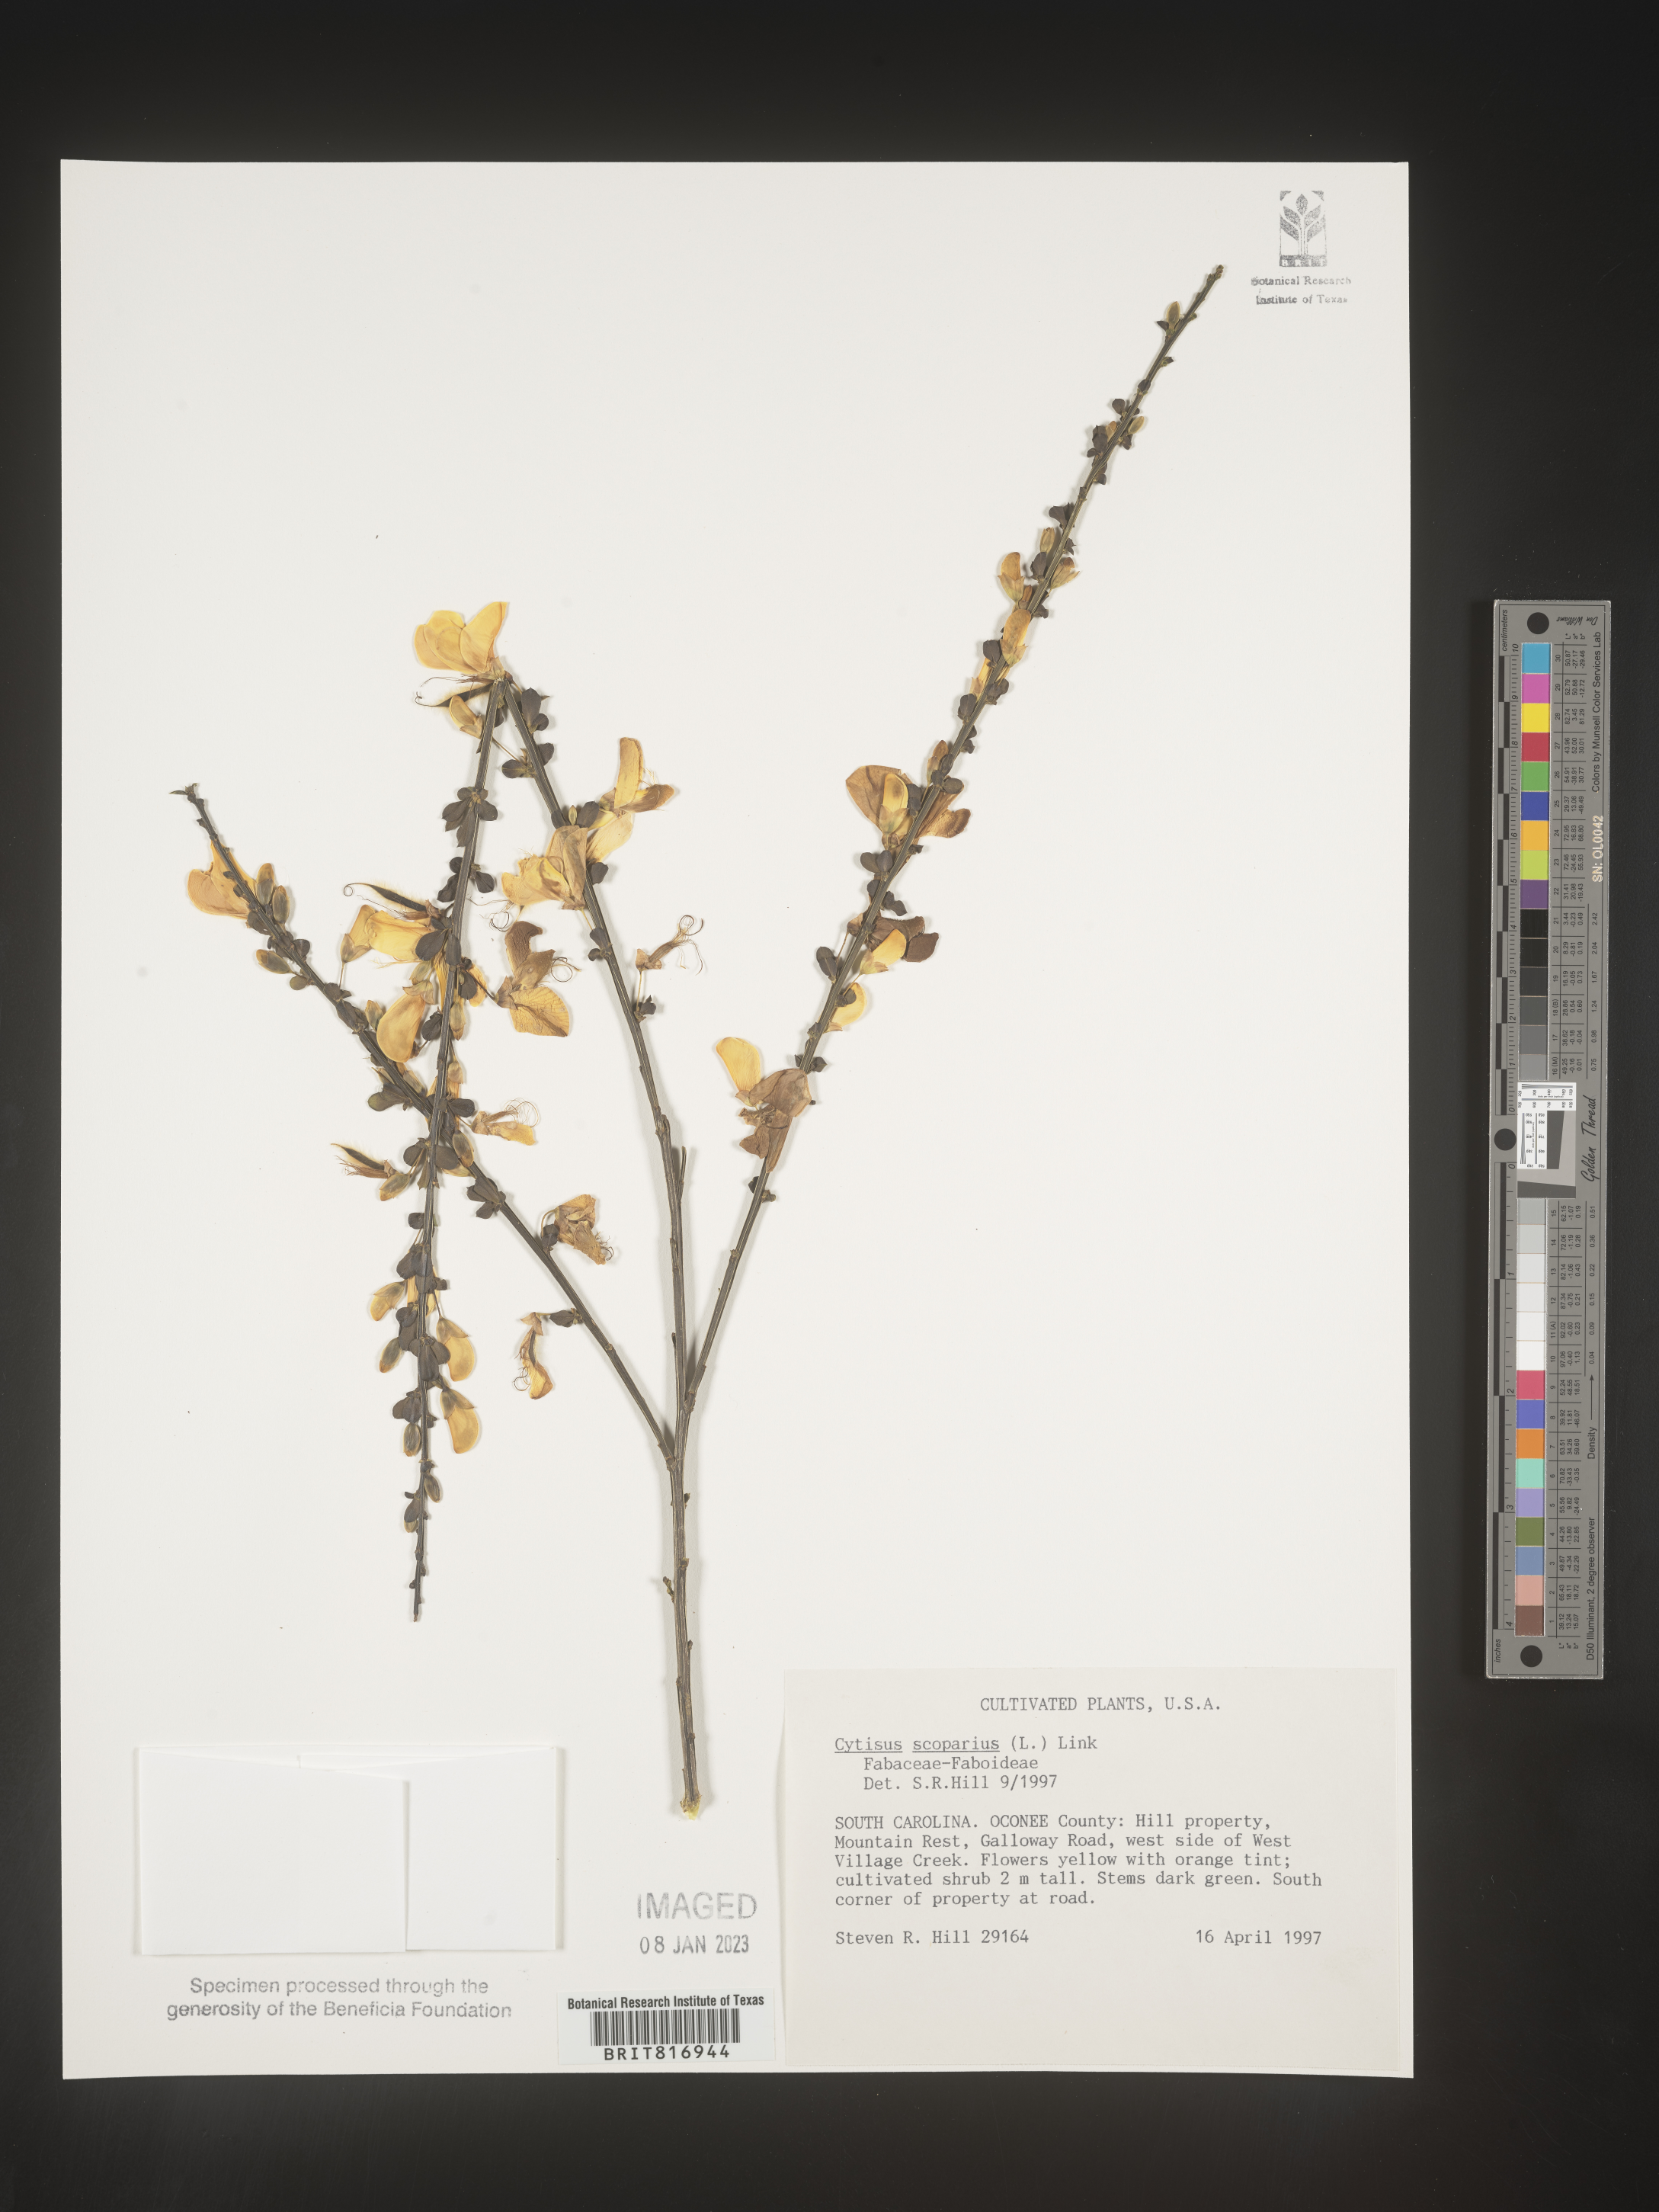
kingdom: Plantae
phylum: Tracheophyta
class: Magnoliopsida
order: Fabales
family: Fabaceae
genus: Cytisus
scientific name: Cytisus
